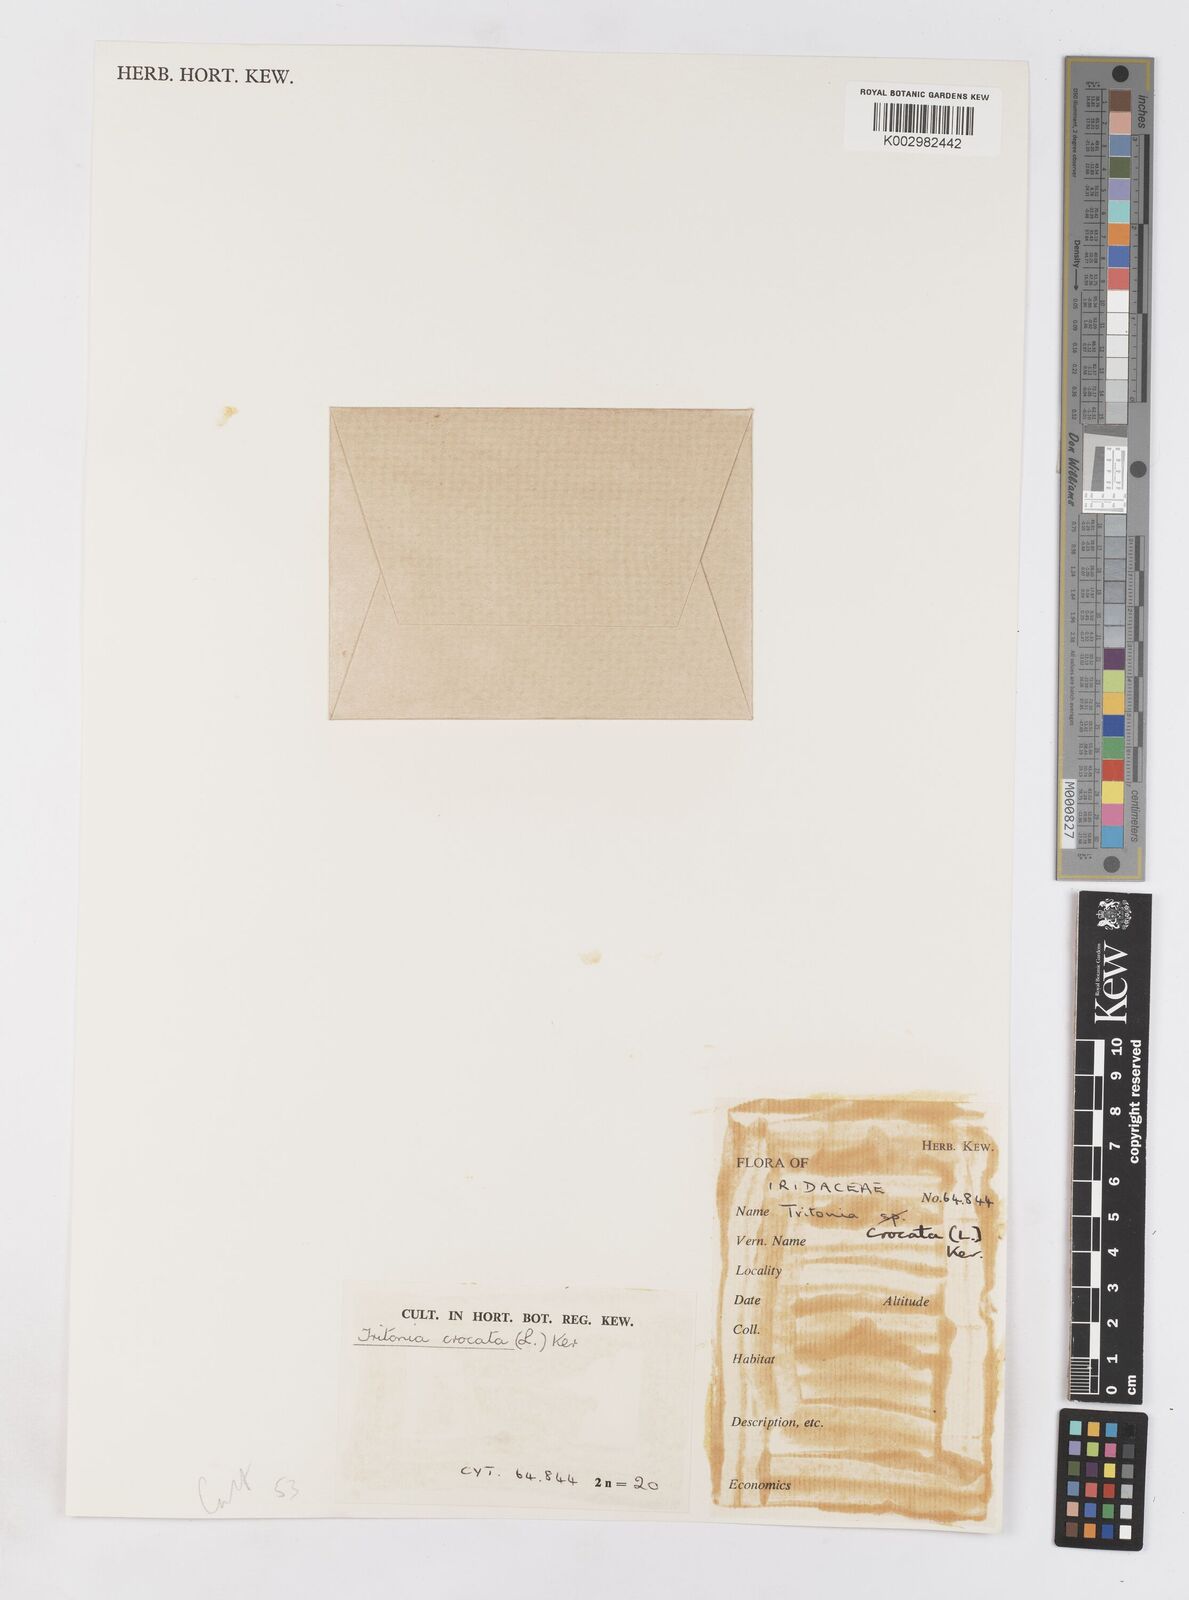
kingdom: Plantae
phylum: Tracheophyta
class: Liliopsida
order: Asparagales
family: Iridaceae
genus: Tritonia
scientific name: Tritonia crocata
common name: Flame-freesia
